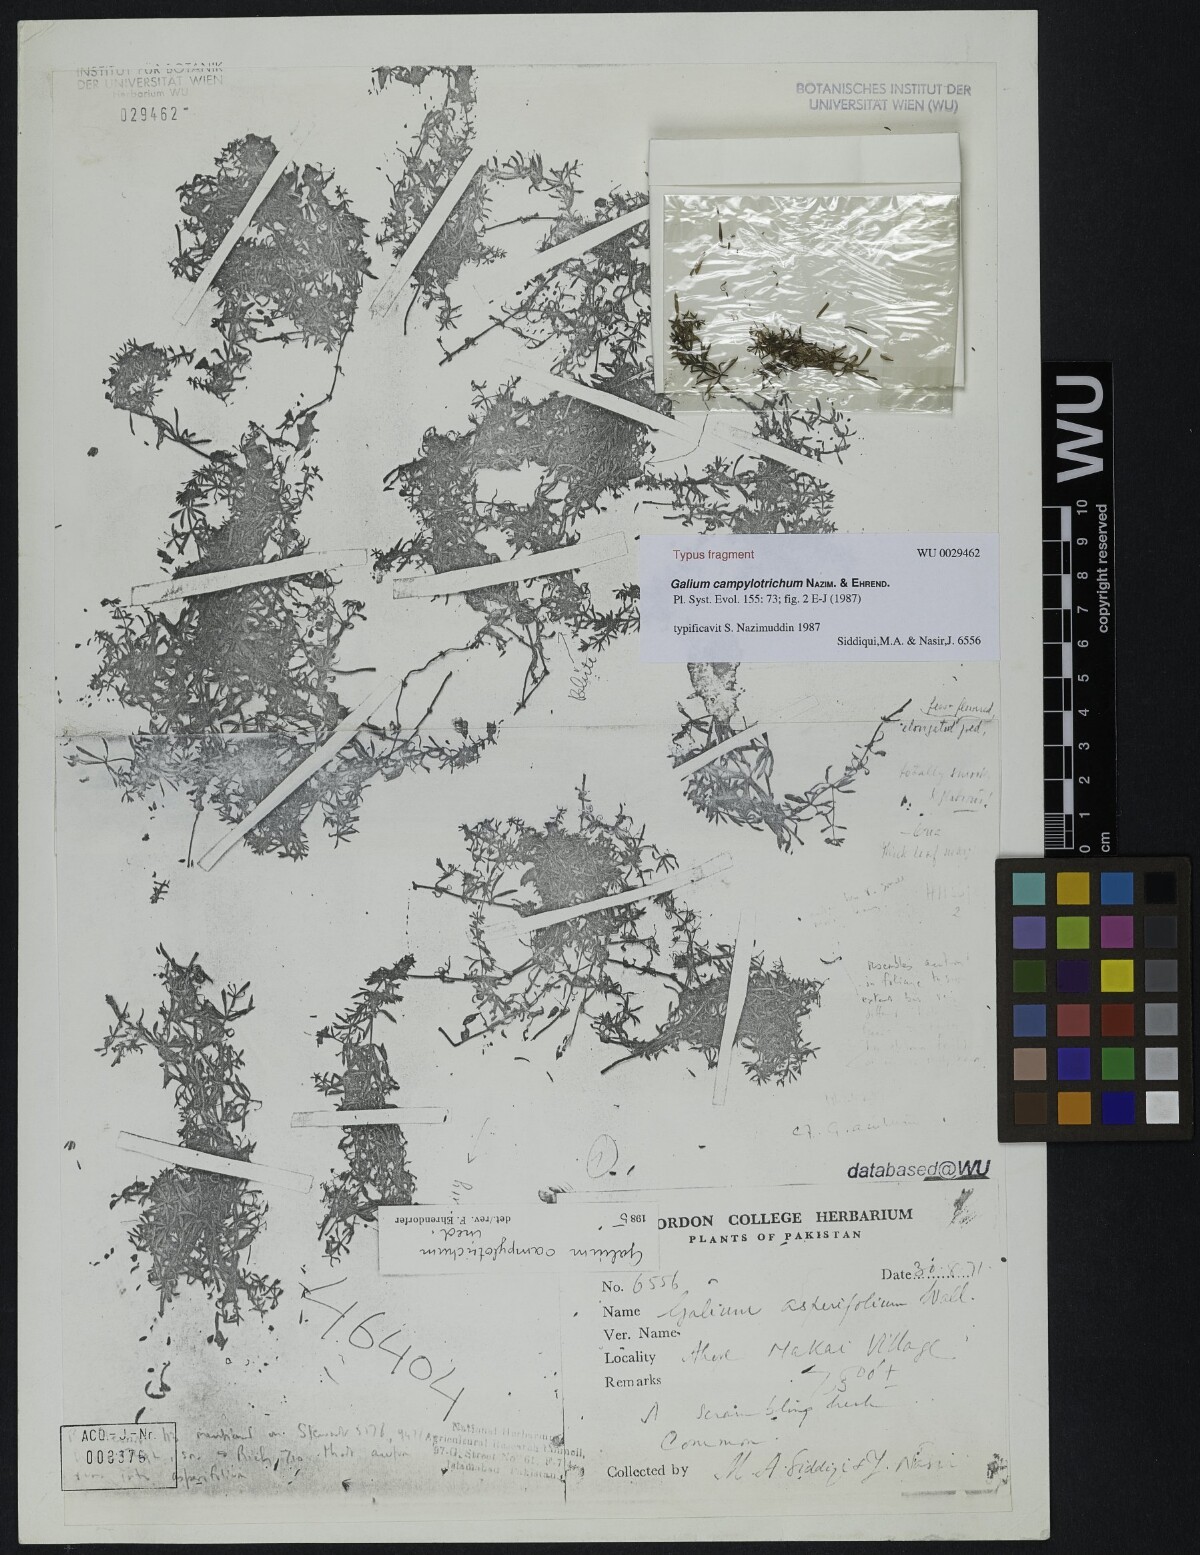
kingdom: Plantae
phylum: Tracheophyta
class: Magnoliopsida
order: Gentianales
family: Rubiaceae
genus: Galium
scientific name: Galium campylotrichum
